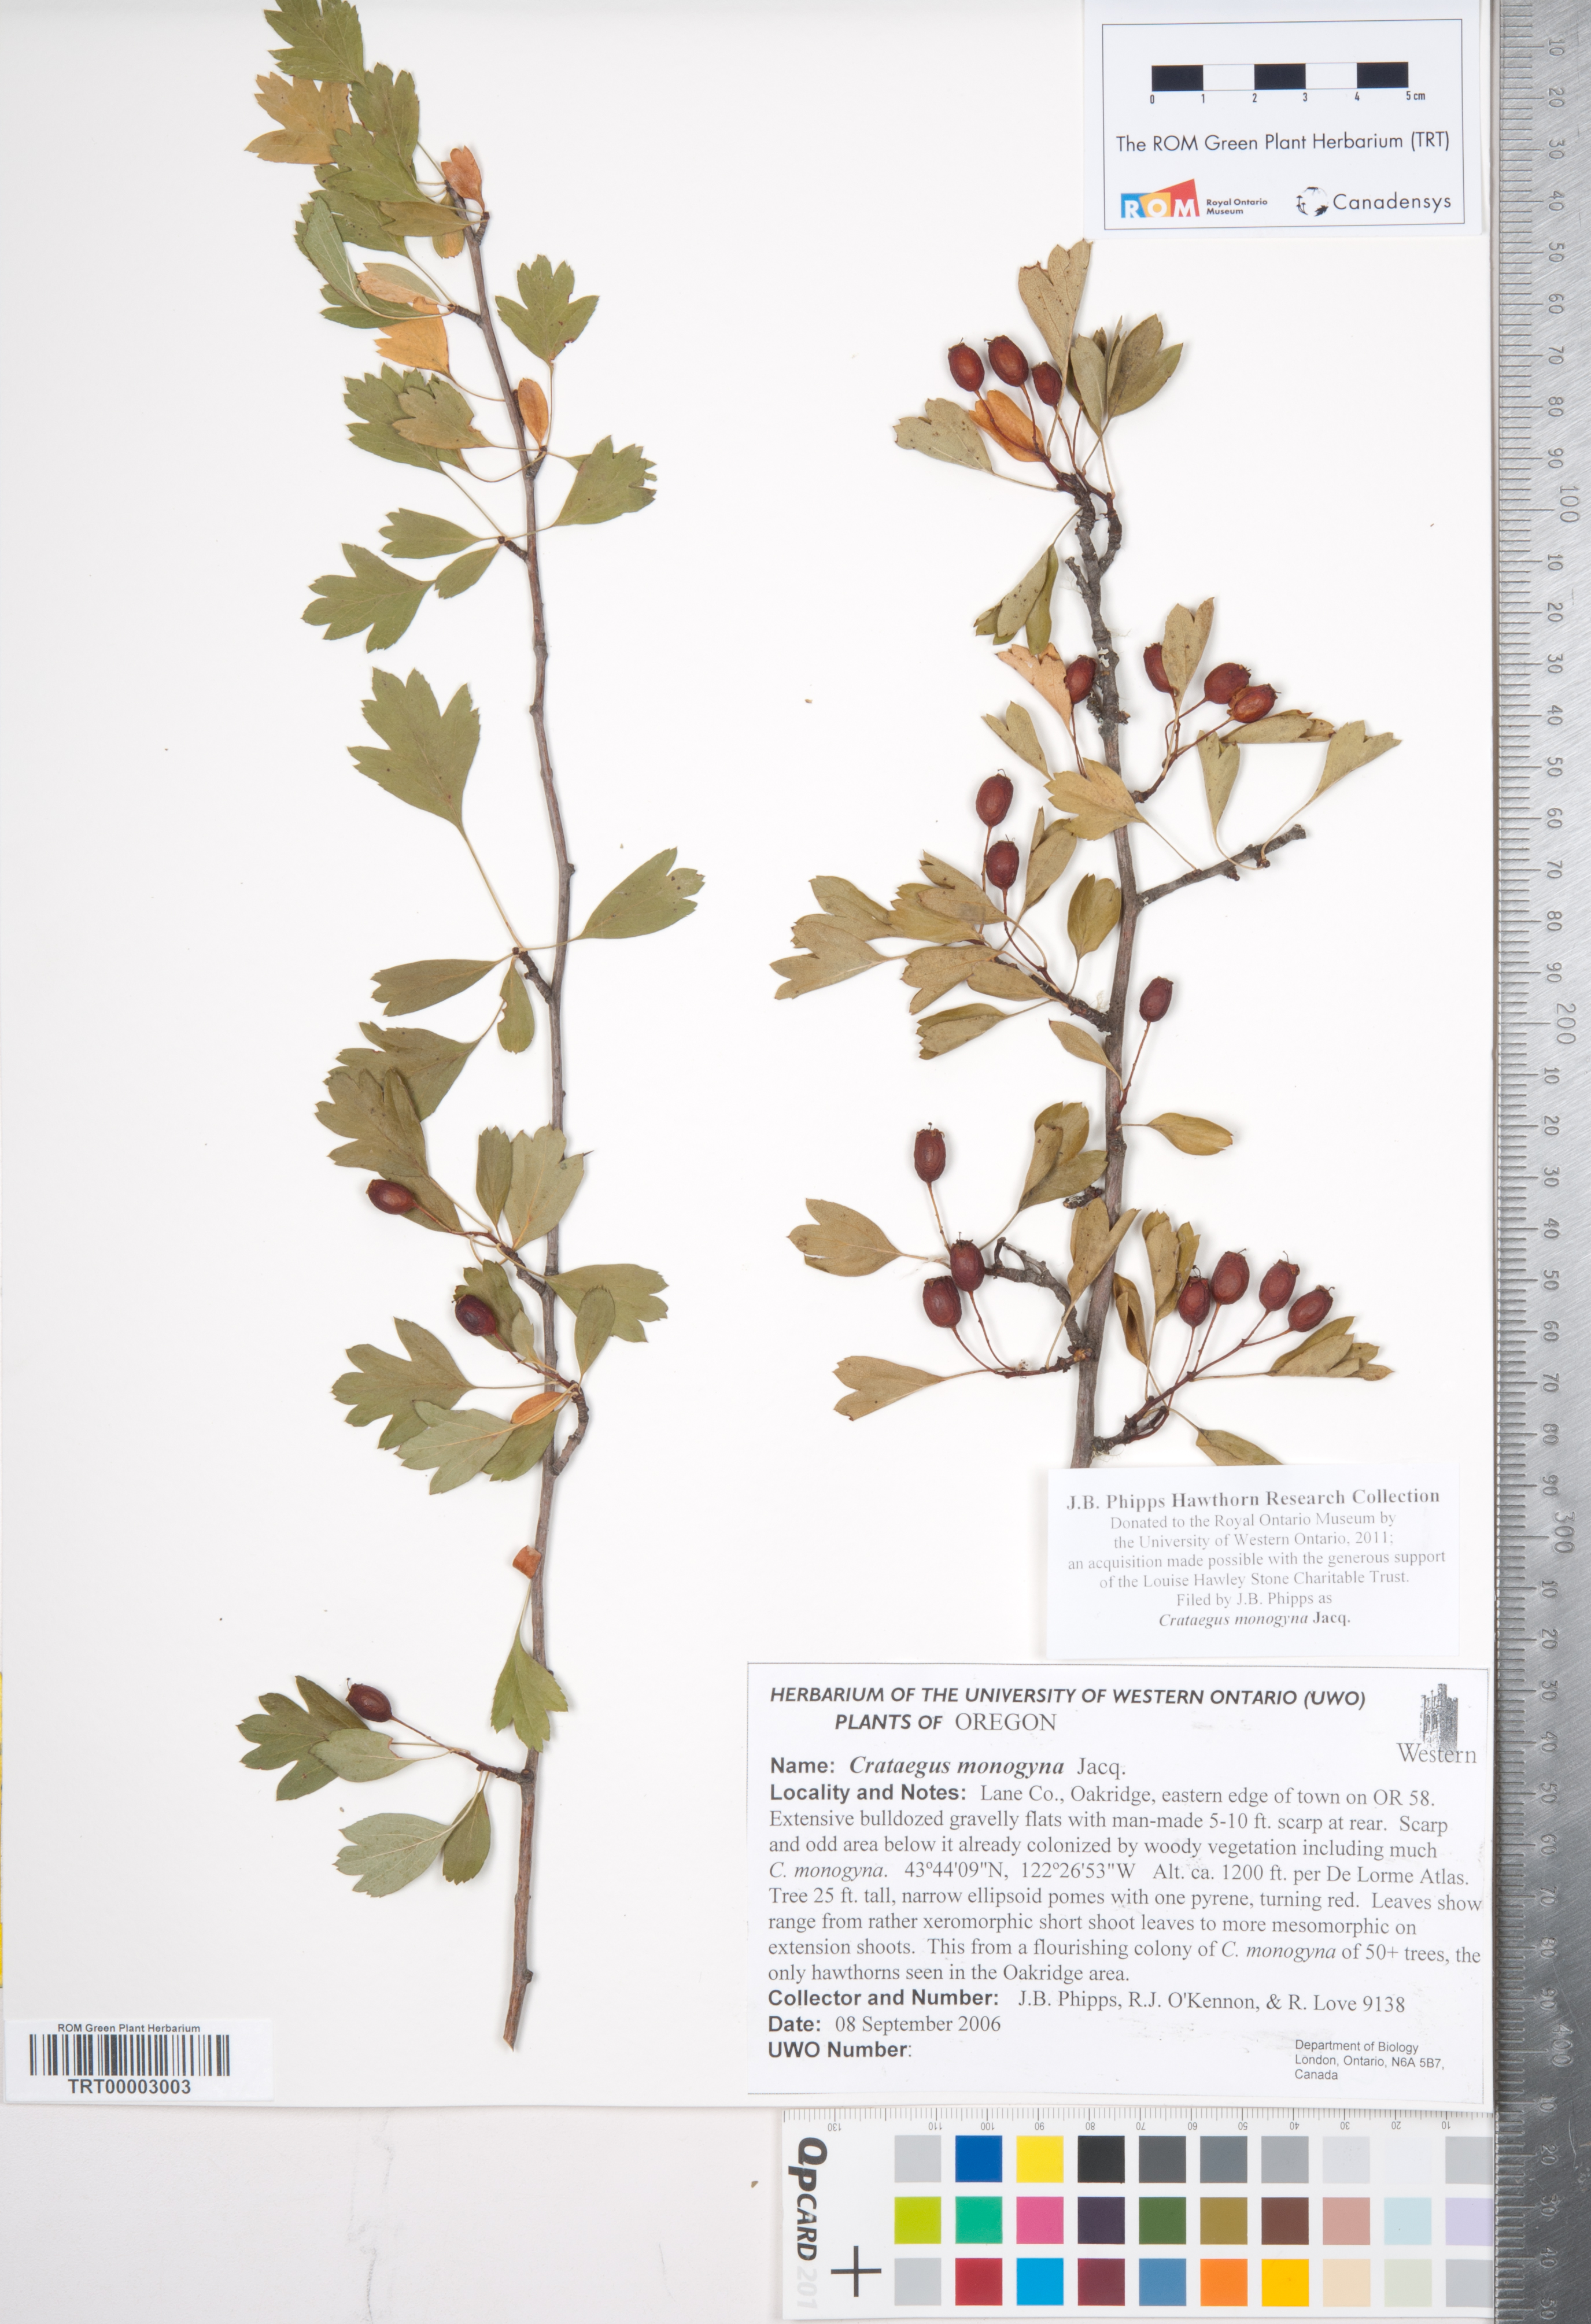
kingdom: Plantae
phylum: Tracheophyta
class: Magnoliopsida
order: Rosales
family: Rosaceae
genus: Crataegus
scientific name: Crataegus monogyna
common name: Hawthorn
